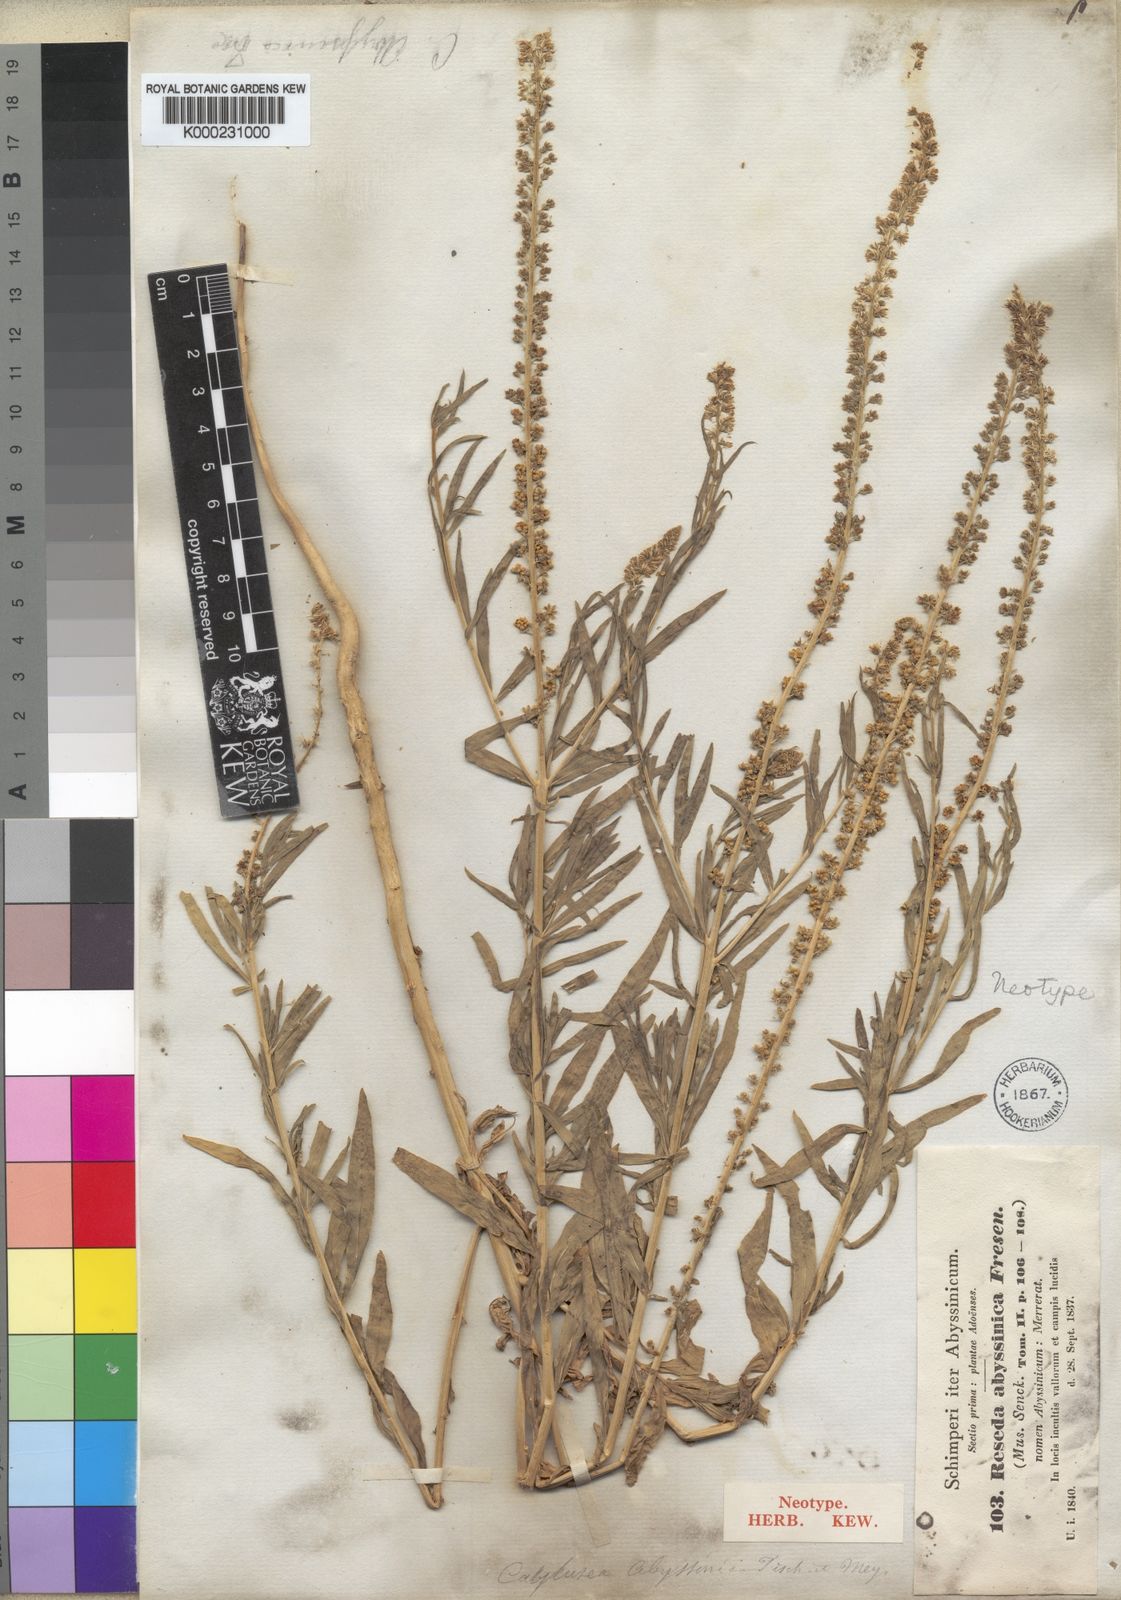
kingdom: Plantae
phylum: Tracheophyta
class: Magnoliopsida
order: Brassicales
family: Resedaceae
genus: Caylusea
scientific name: Caylusea abyssinica
